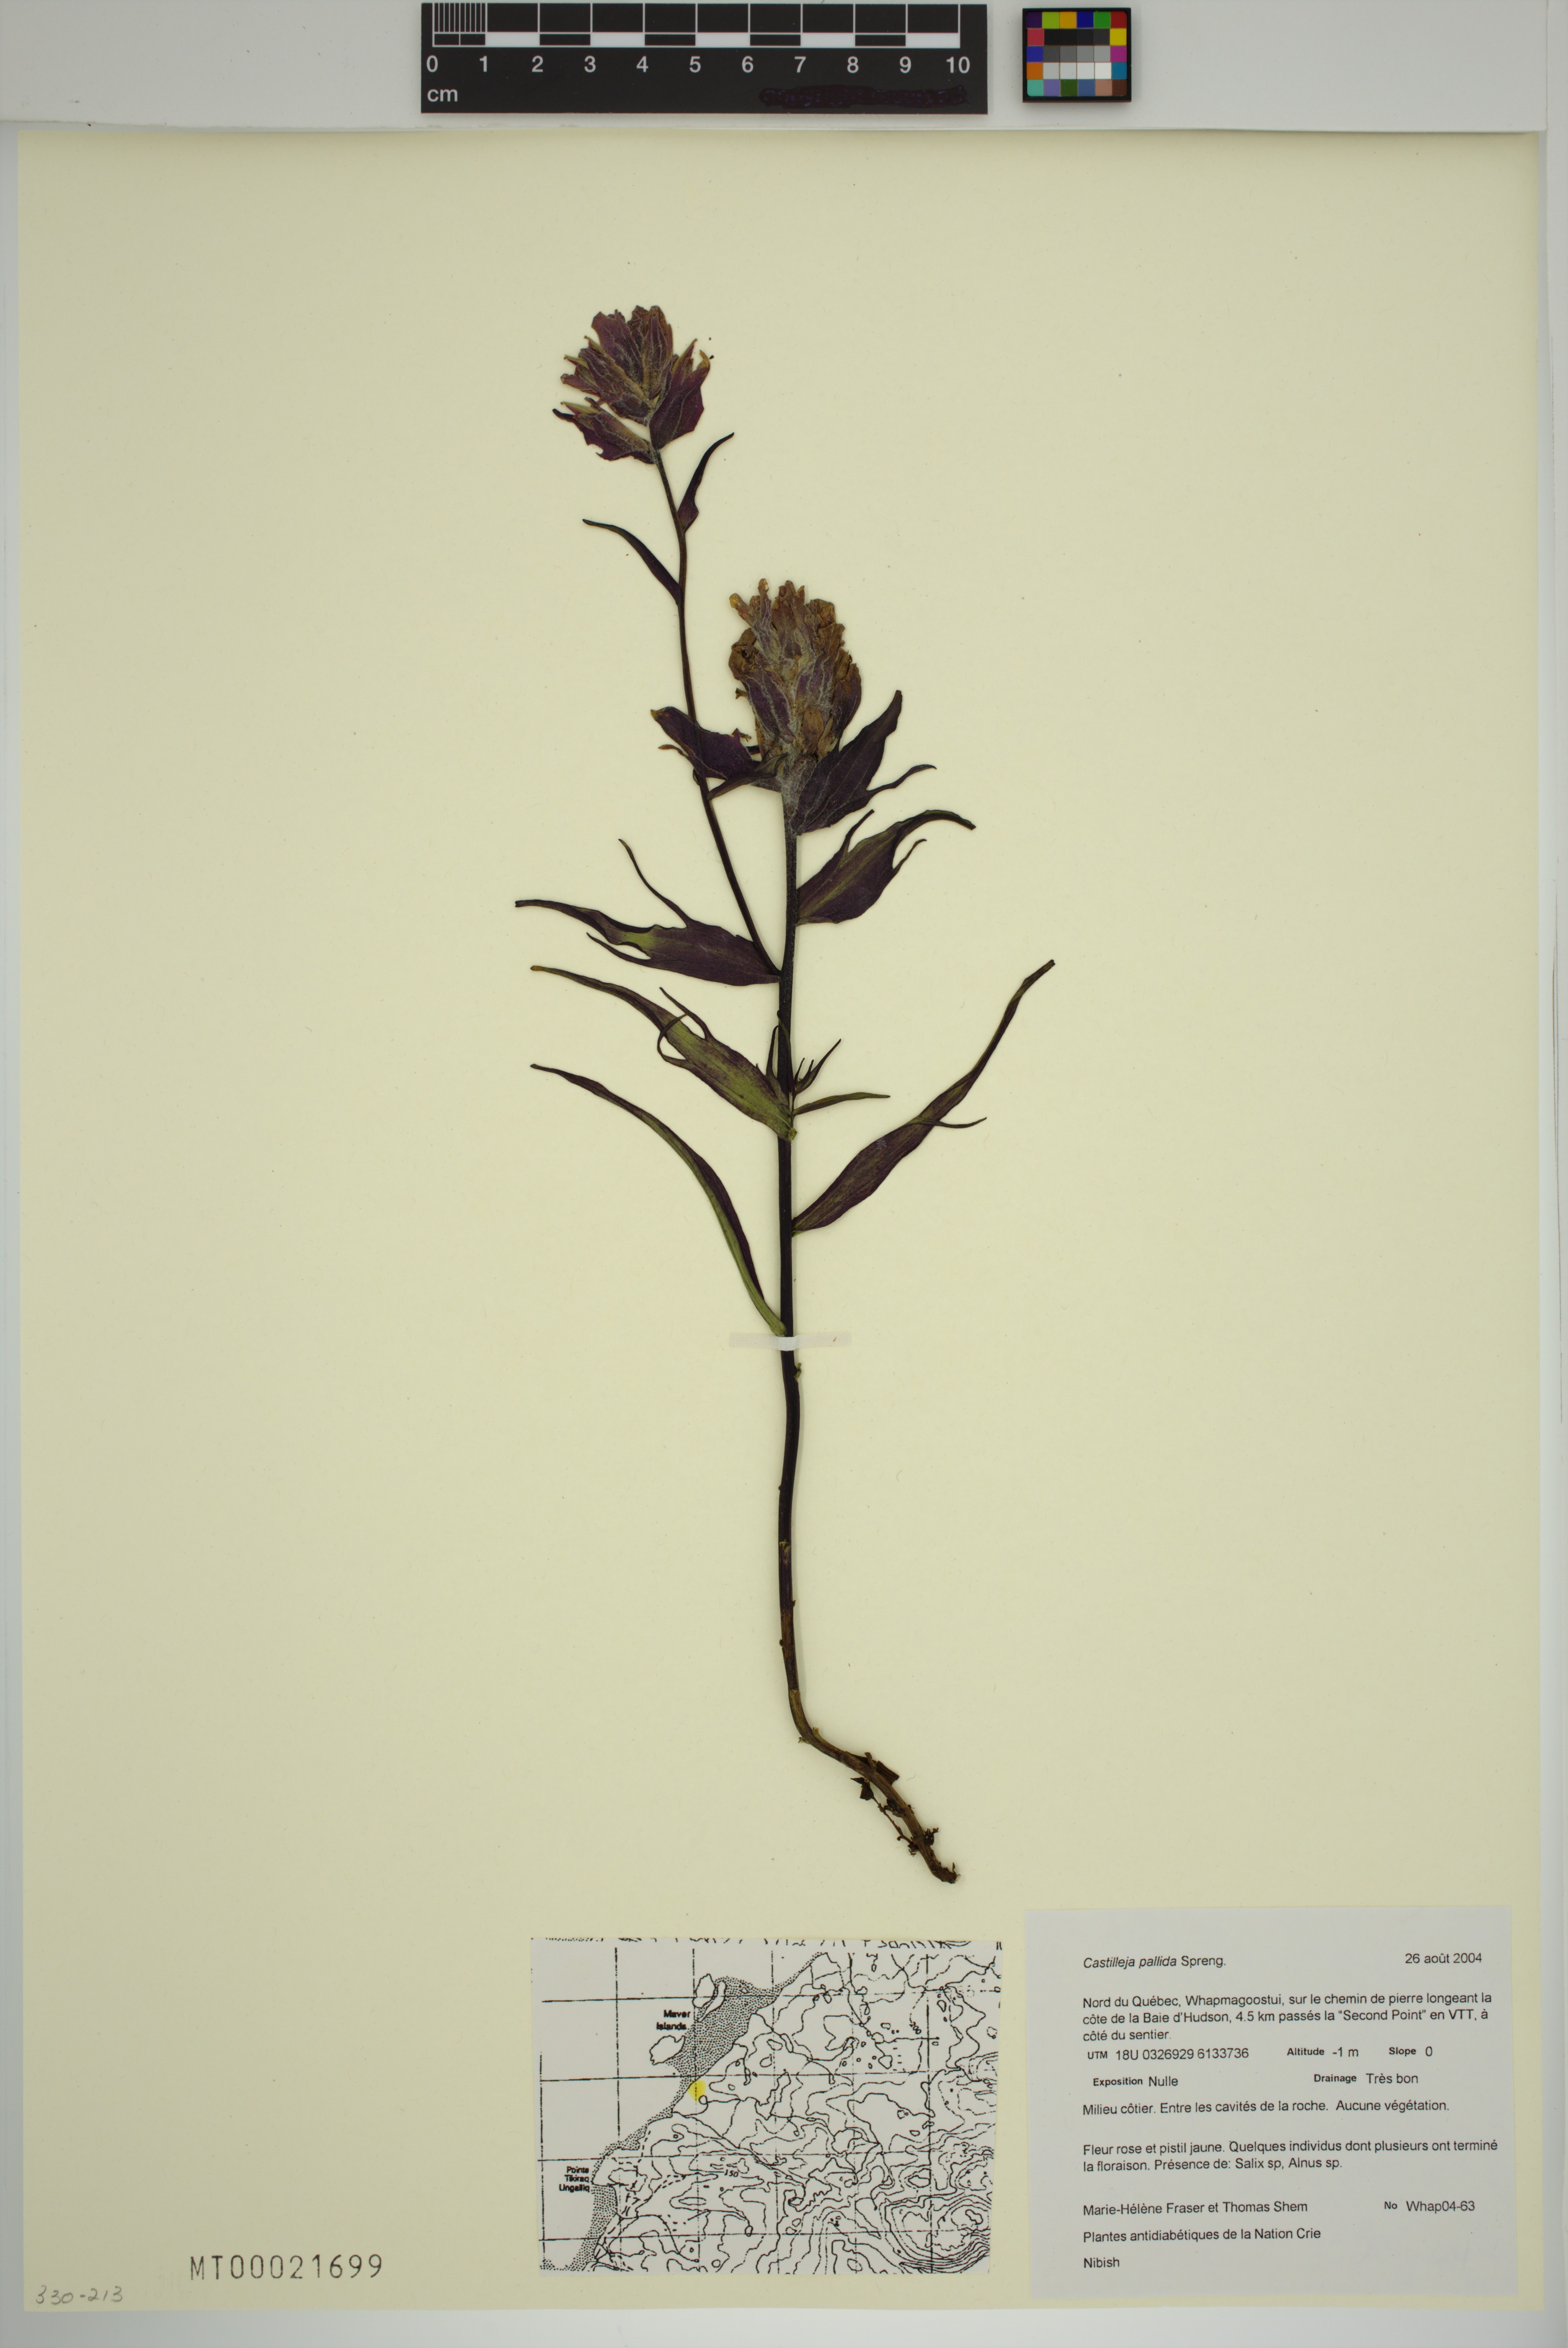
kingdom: Plantae
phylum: Tracheophyta
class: Magnoliopsida
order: Lamiales
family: Orobanchaceae
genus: Castilleja
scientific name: Castilleja pallida
